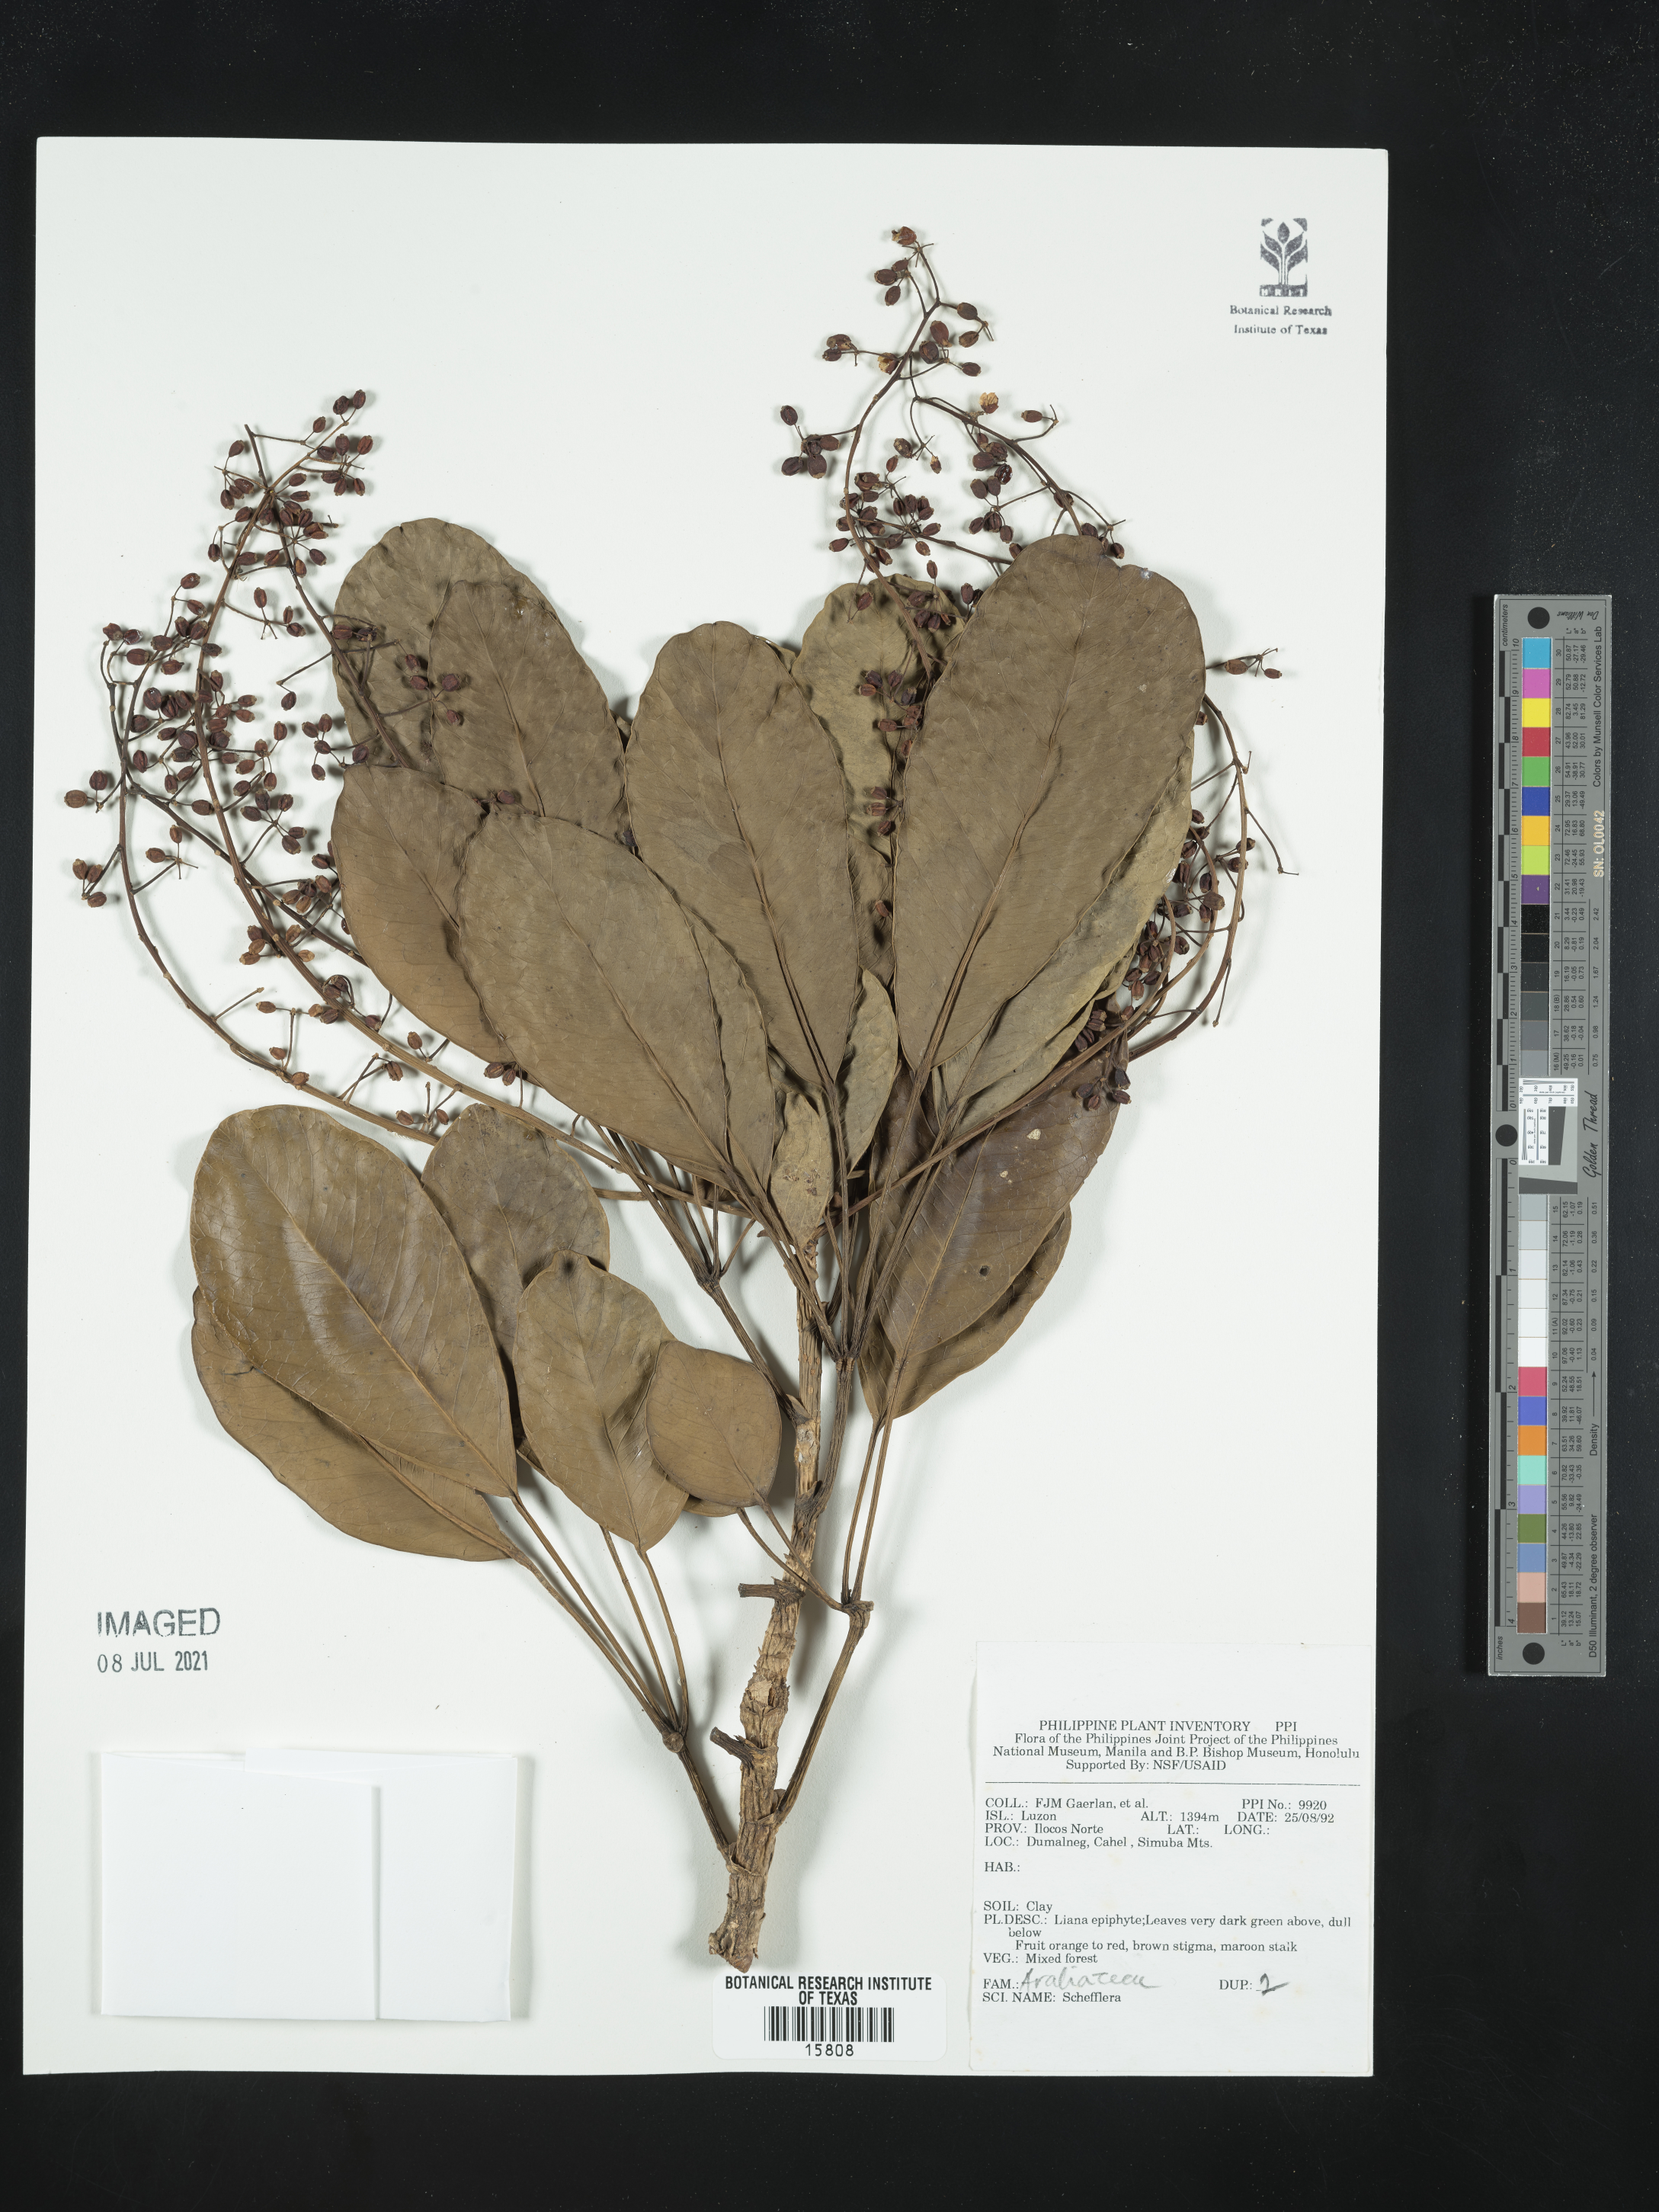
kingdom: Plantae
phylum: Tracheophyta
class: Magnoliopsida
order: Apiales
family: Araliaceae
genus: Schefflera
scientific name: Schefflera
